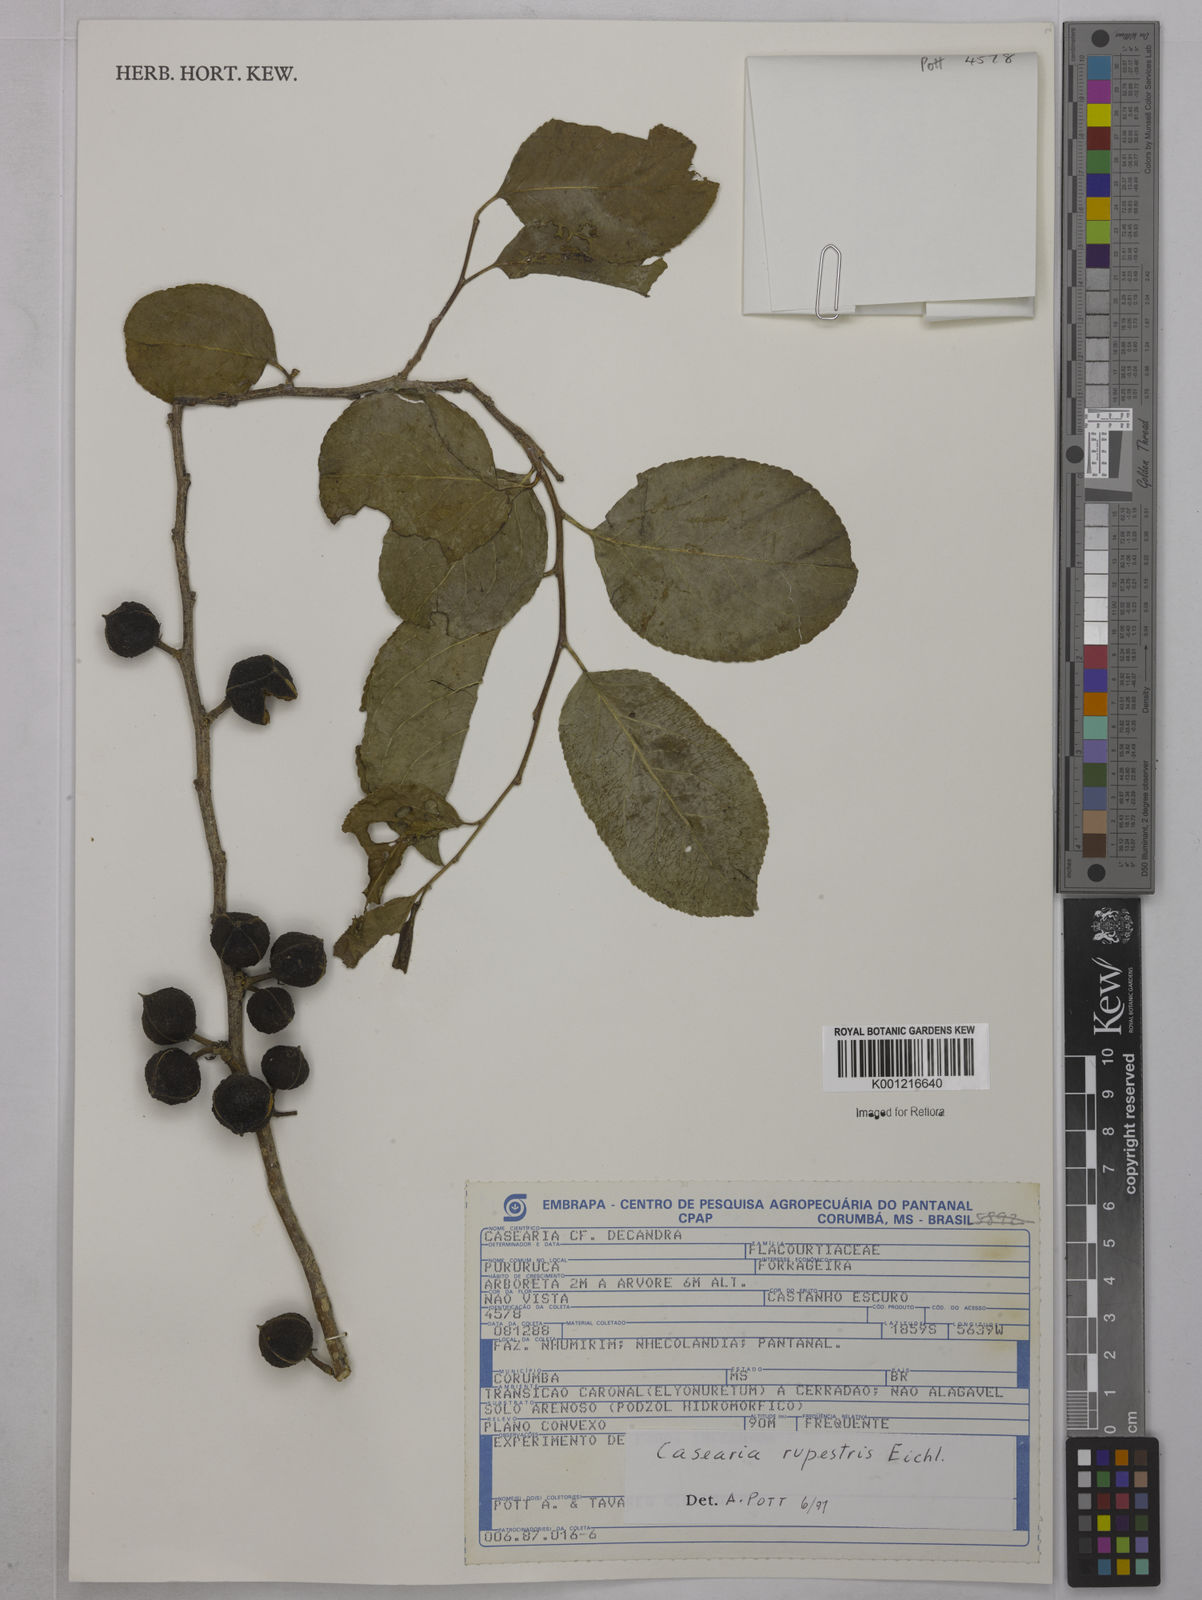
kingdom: Plantae
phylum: Tracheophyta
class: Magnoliopsida
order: Malpighiales
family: Salicaceae
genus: Casearia
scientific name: Casearia rupestris
